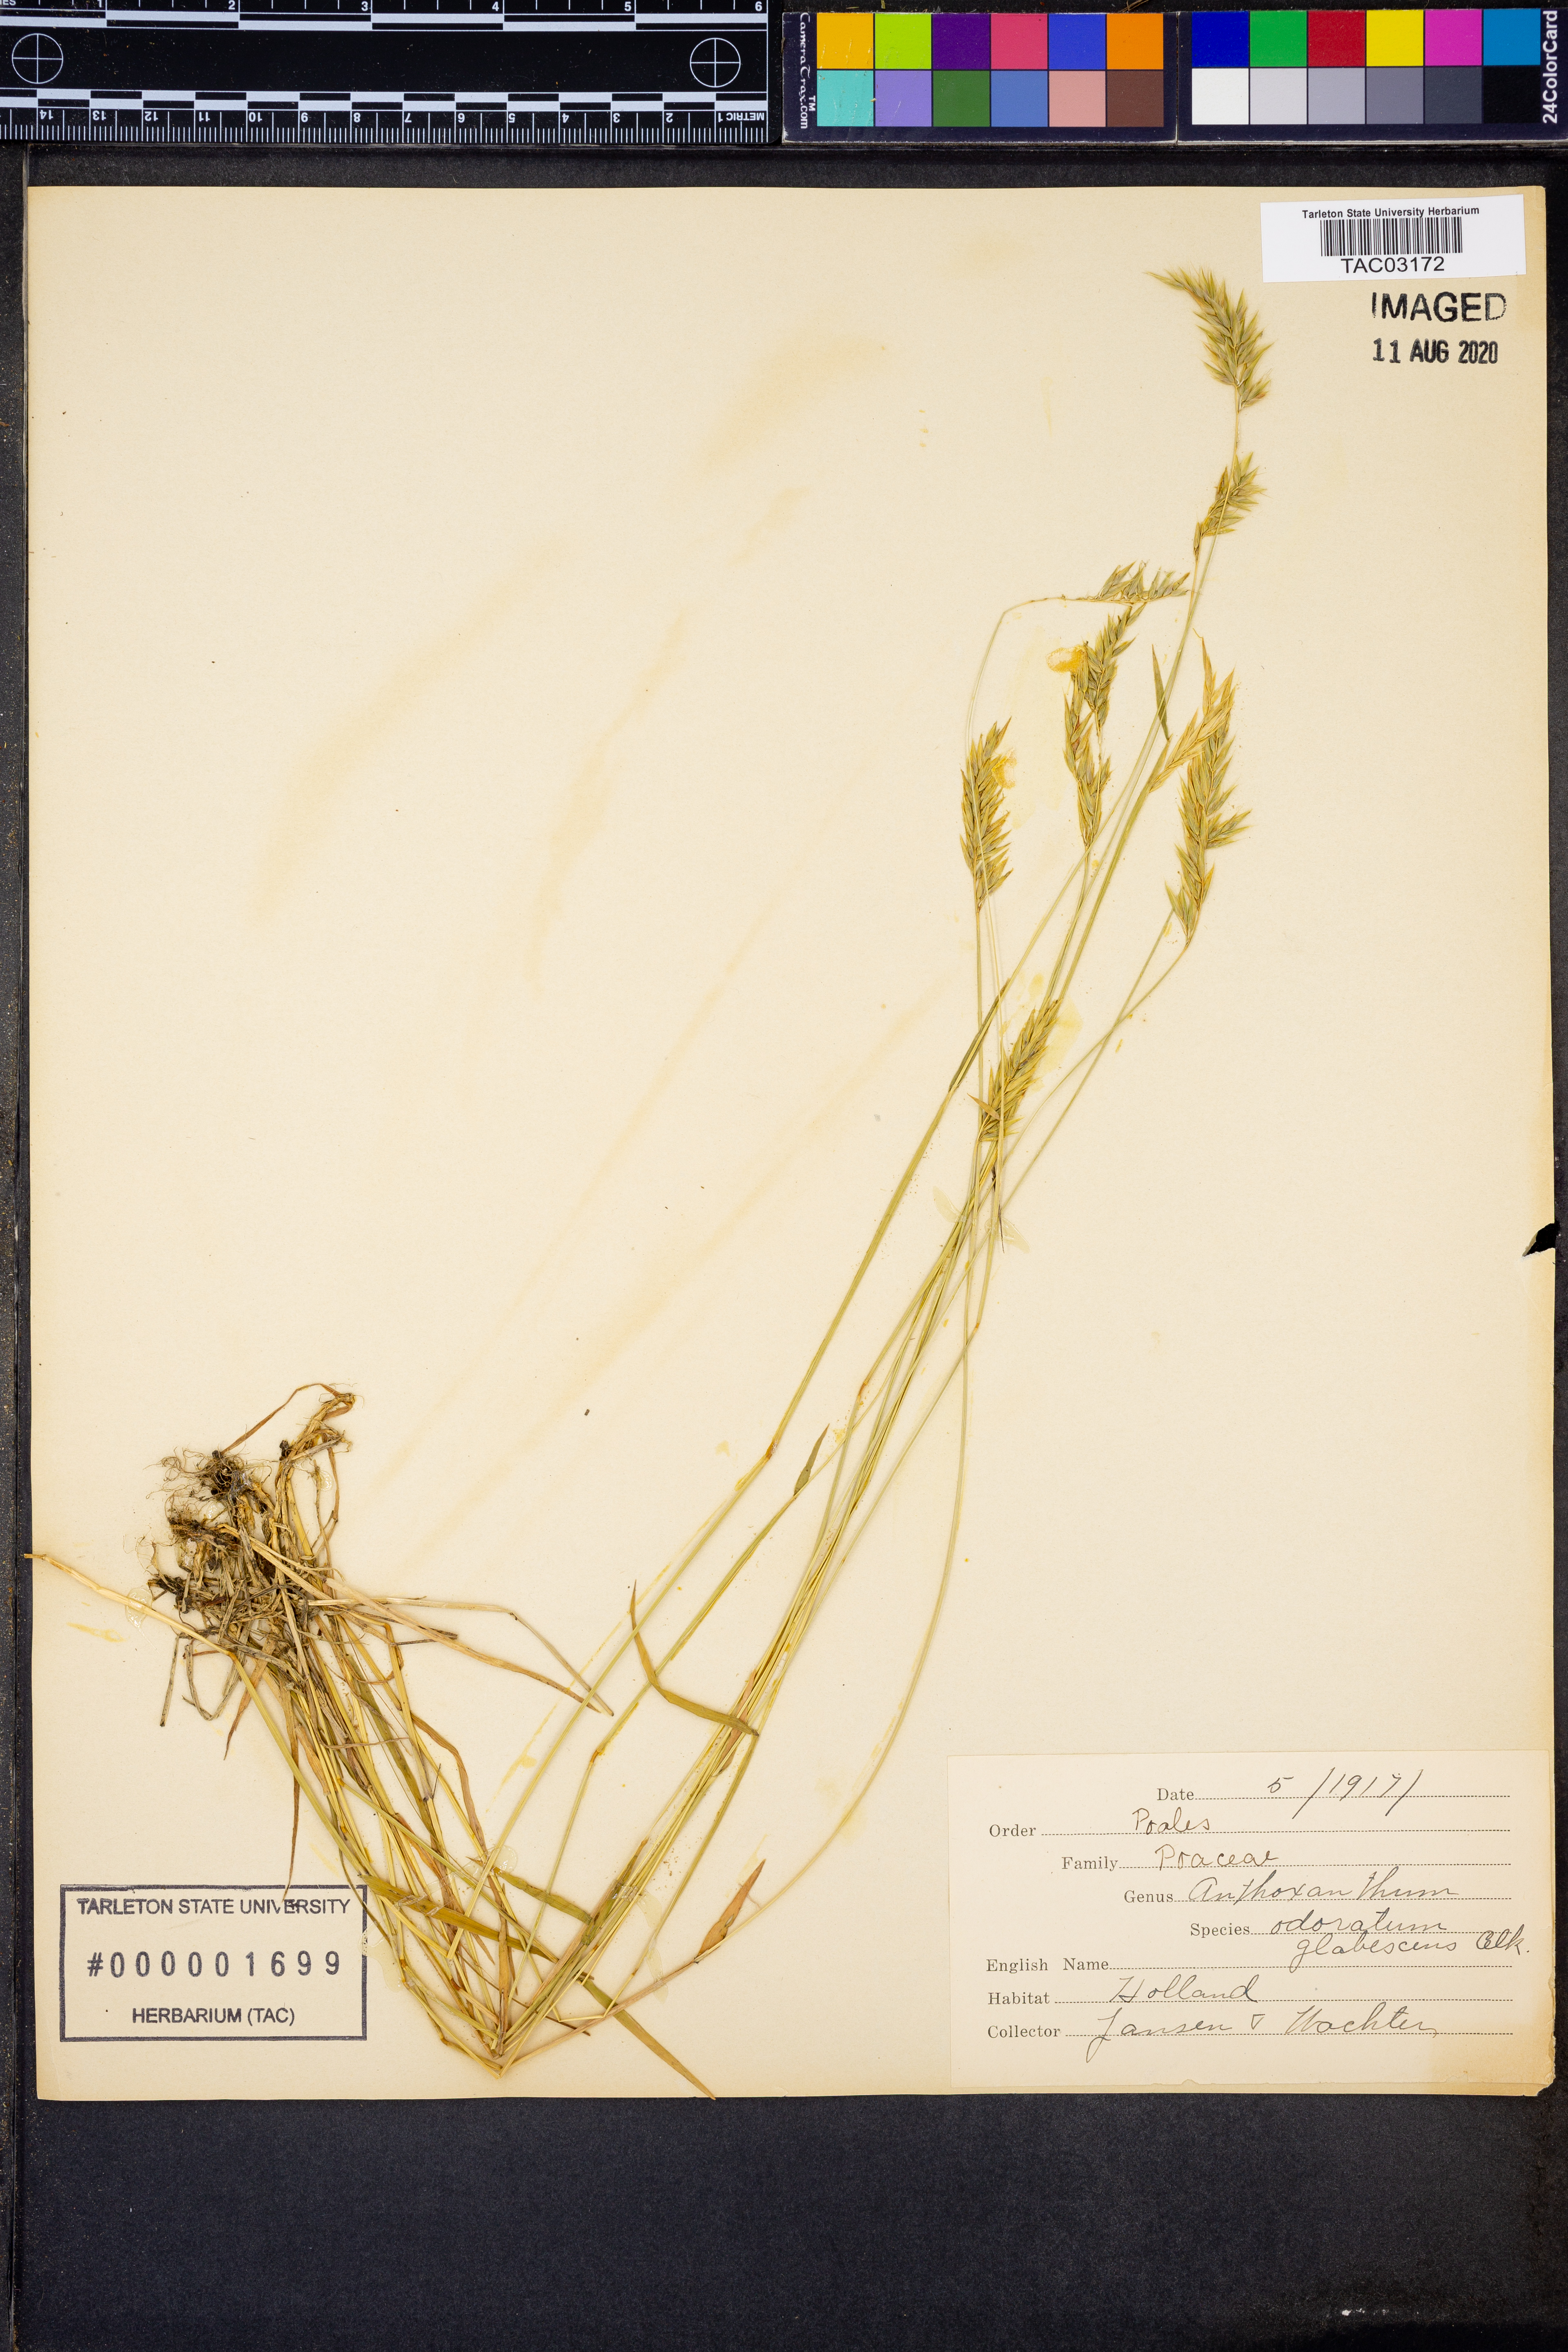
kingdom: Plantae
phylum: Tracheophyta
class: Liliopsida
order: Poales
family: Poaceae
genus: Anthoxanthum
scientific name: Anthoxanthum odoratum
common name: Sweet vernalgrass
